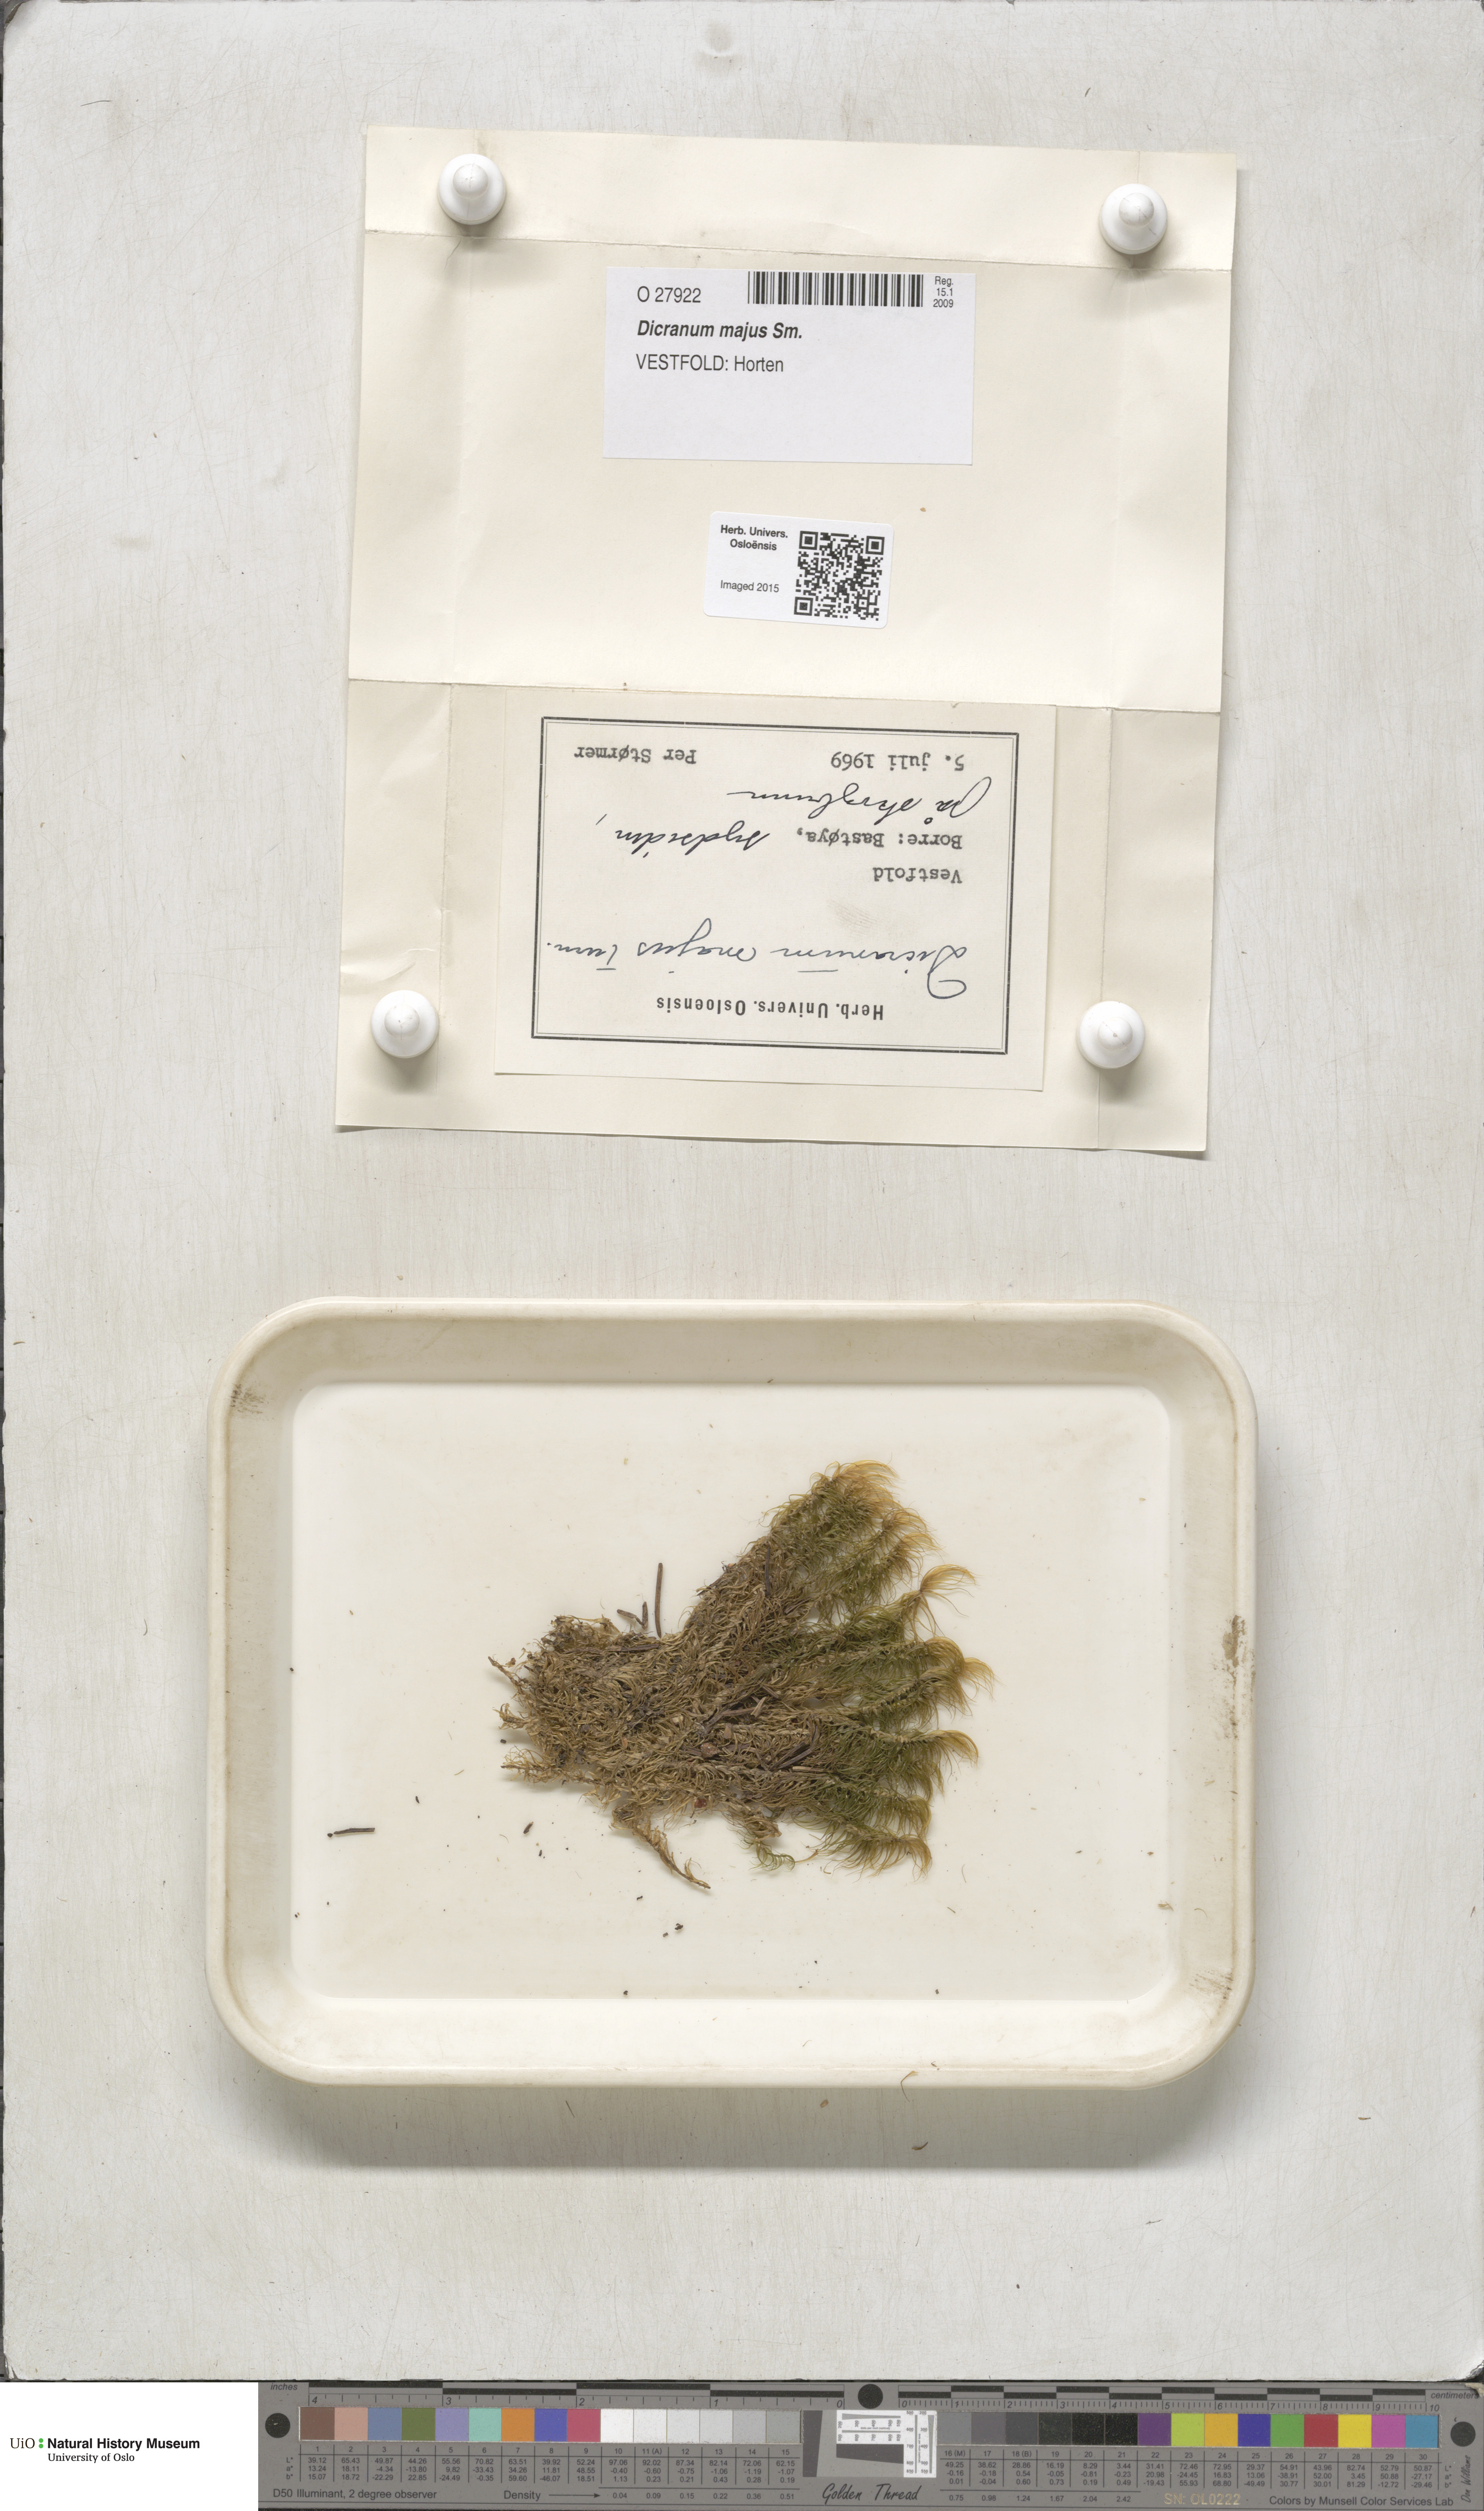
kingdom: Plantae
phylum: Bryophyta
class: Bryopsida
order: Dicranales
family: Dicranaceae
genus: Dicranum
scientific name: Dicranum majus
